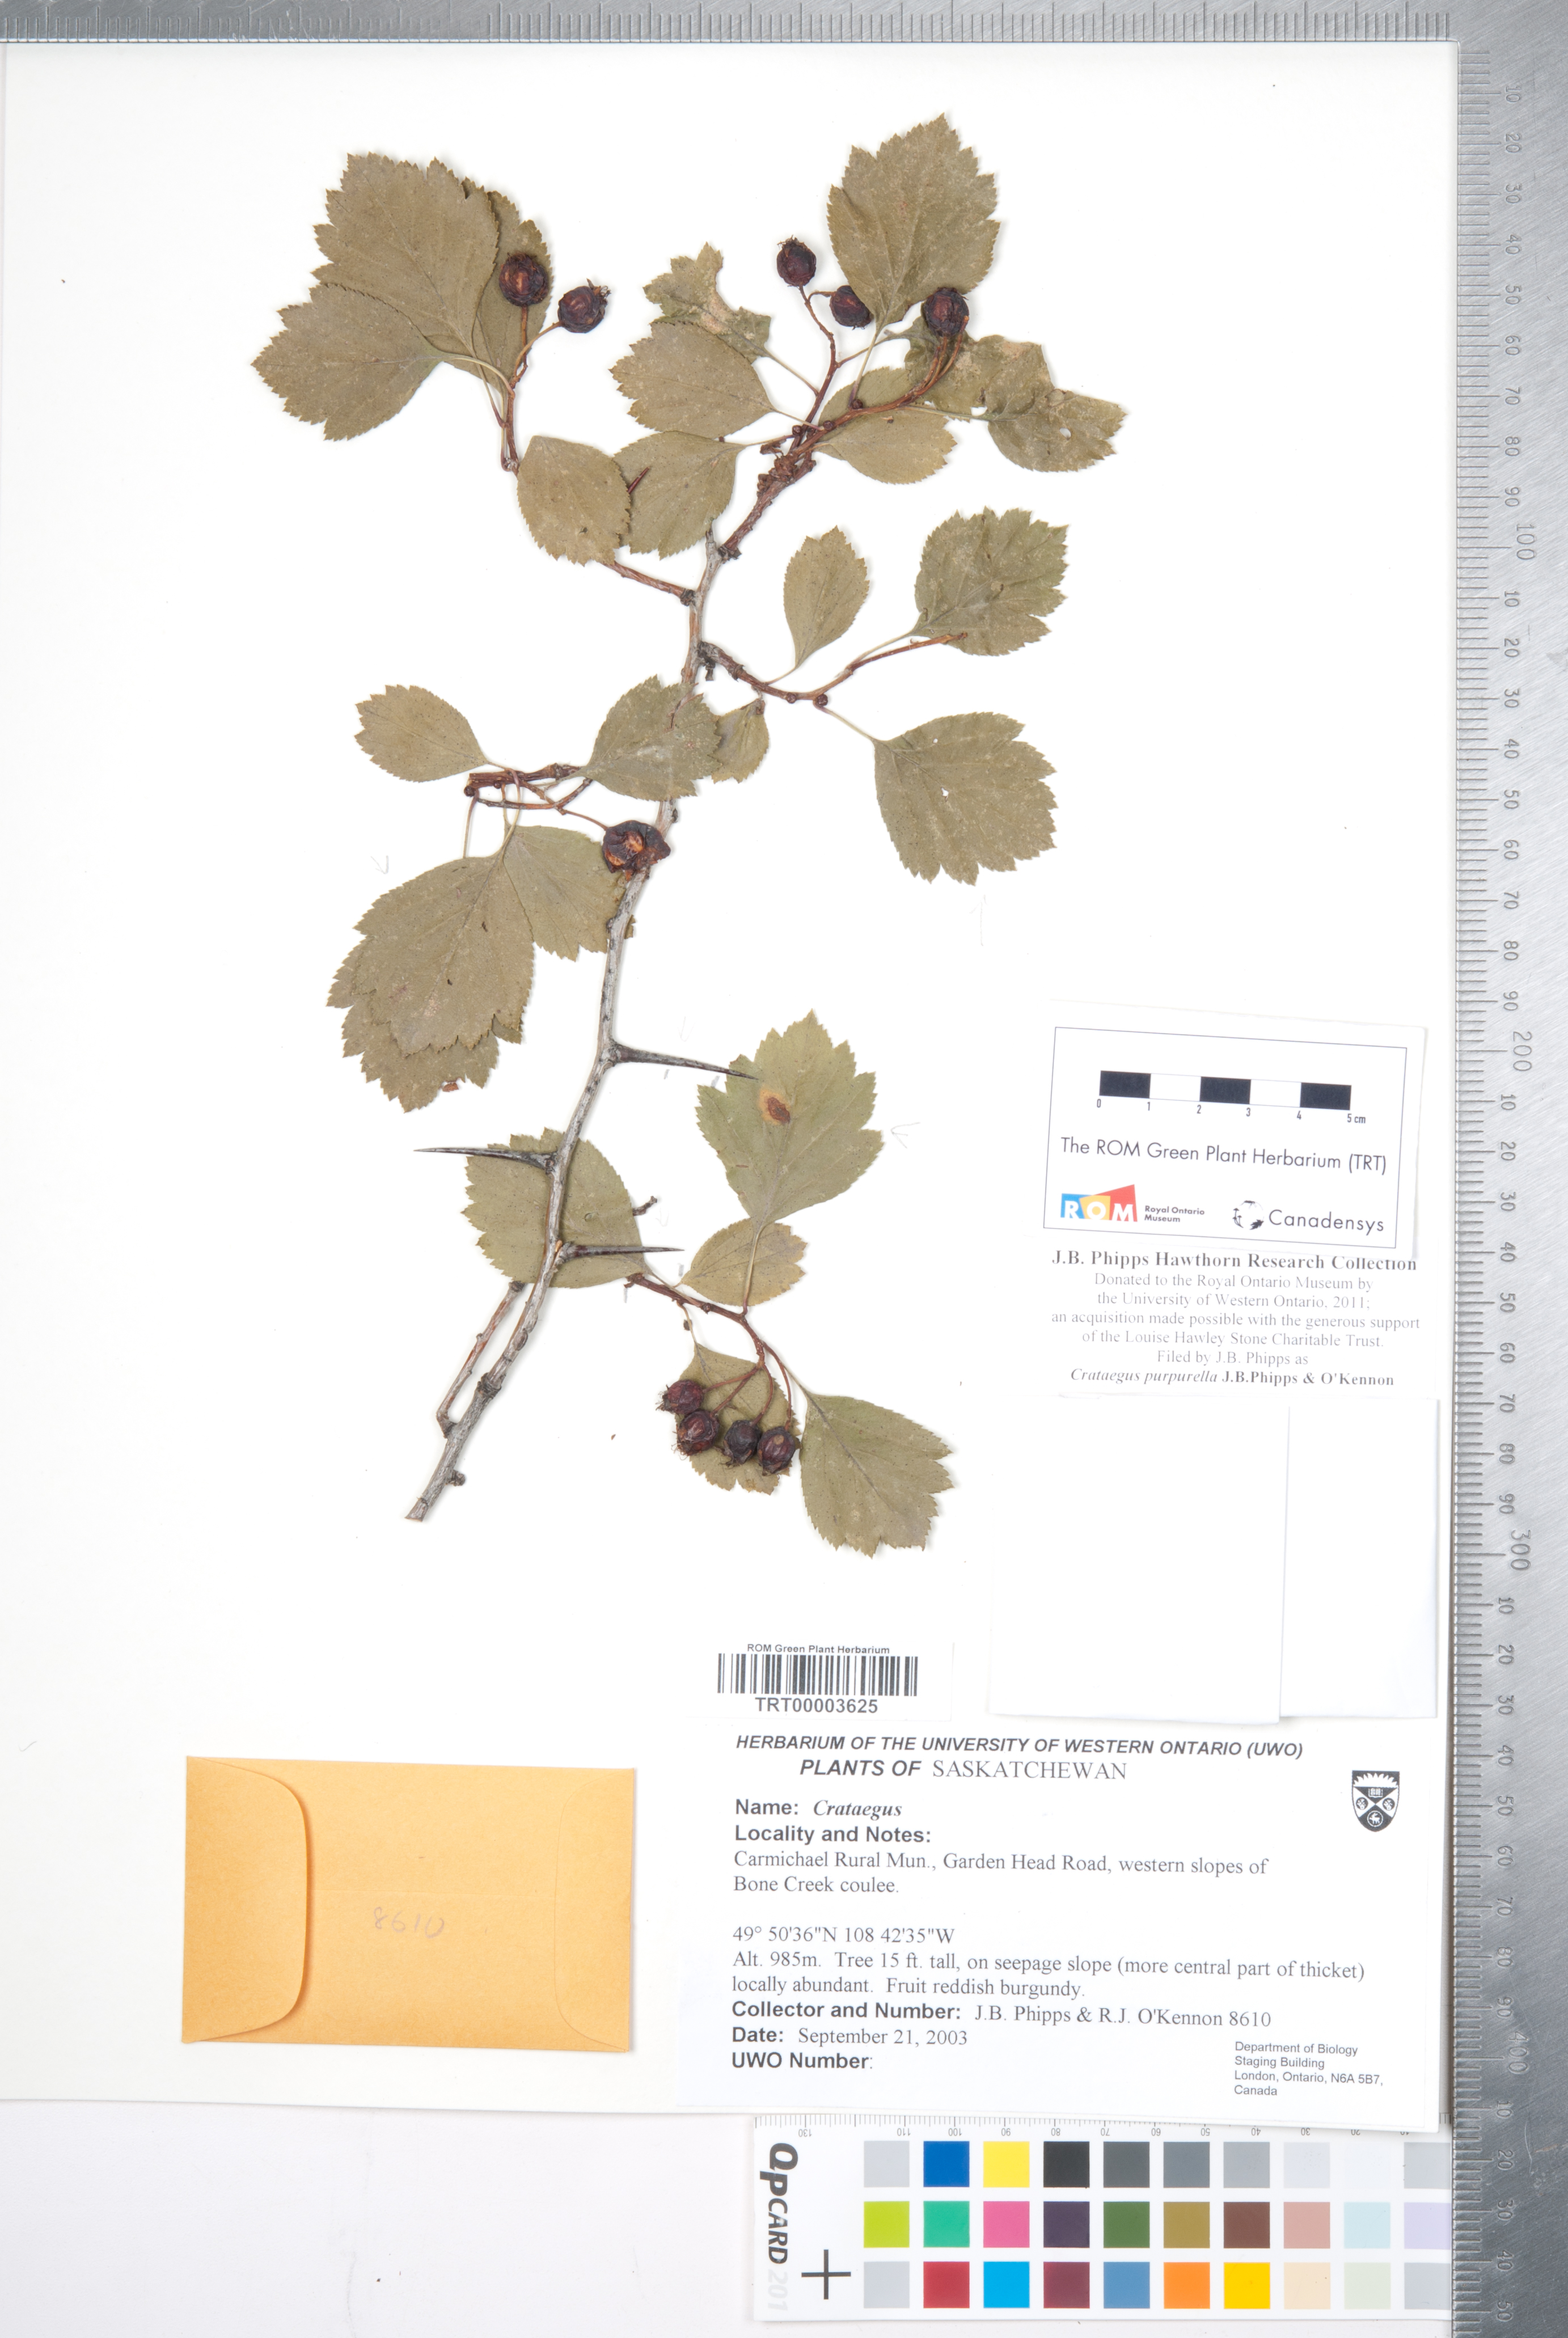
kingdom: Plantae
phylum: Tracheophyta
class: Magnoliopsida
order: Rosales
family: Rosaceae
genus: Crataegus
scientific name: Crataegus purpurella
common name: Loch lomond hawthorn
